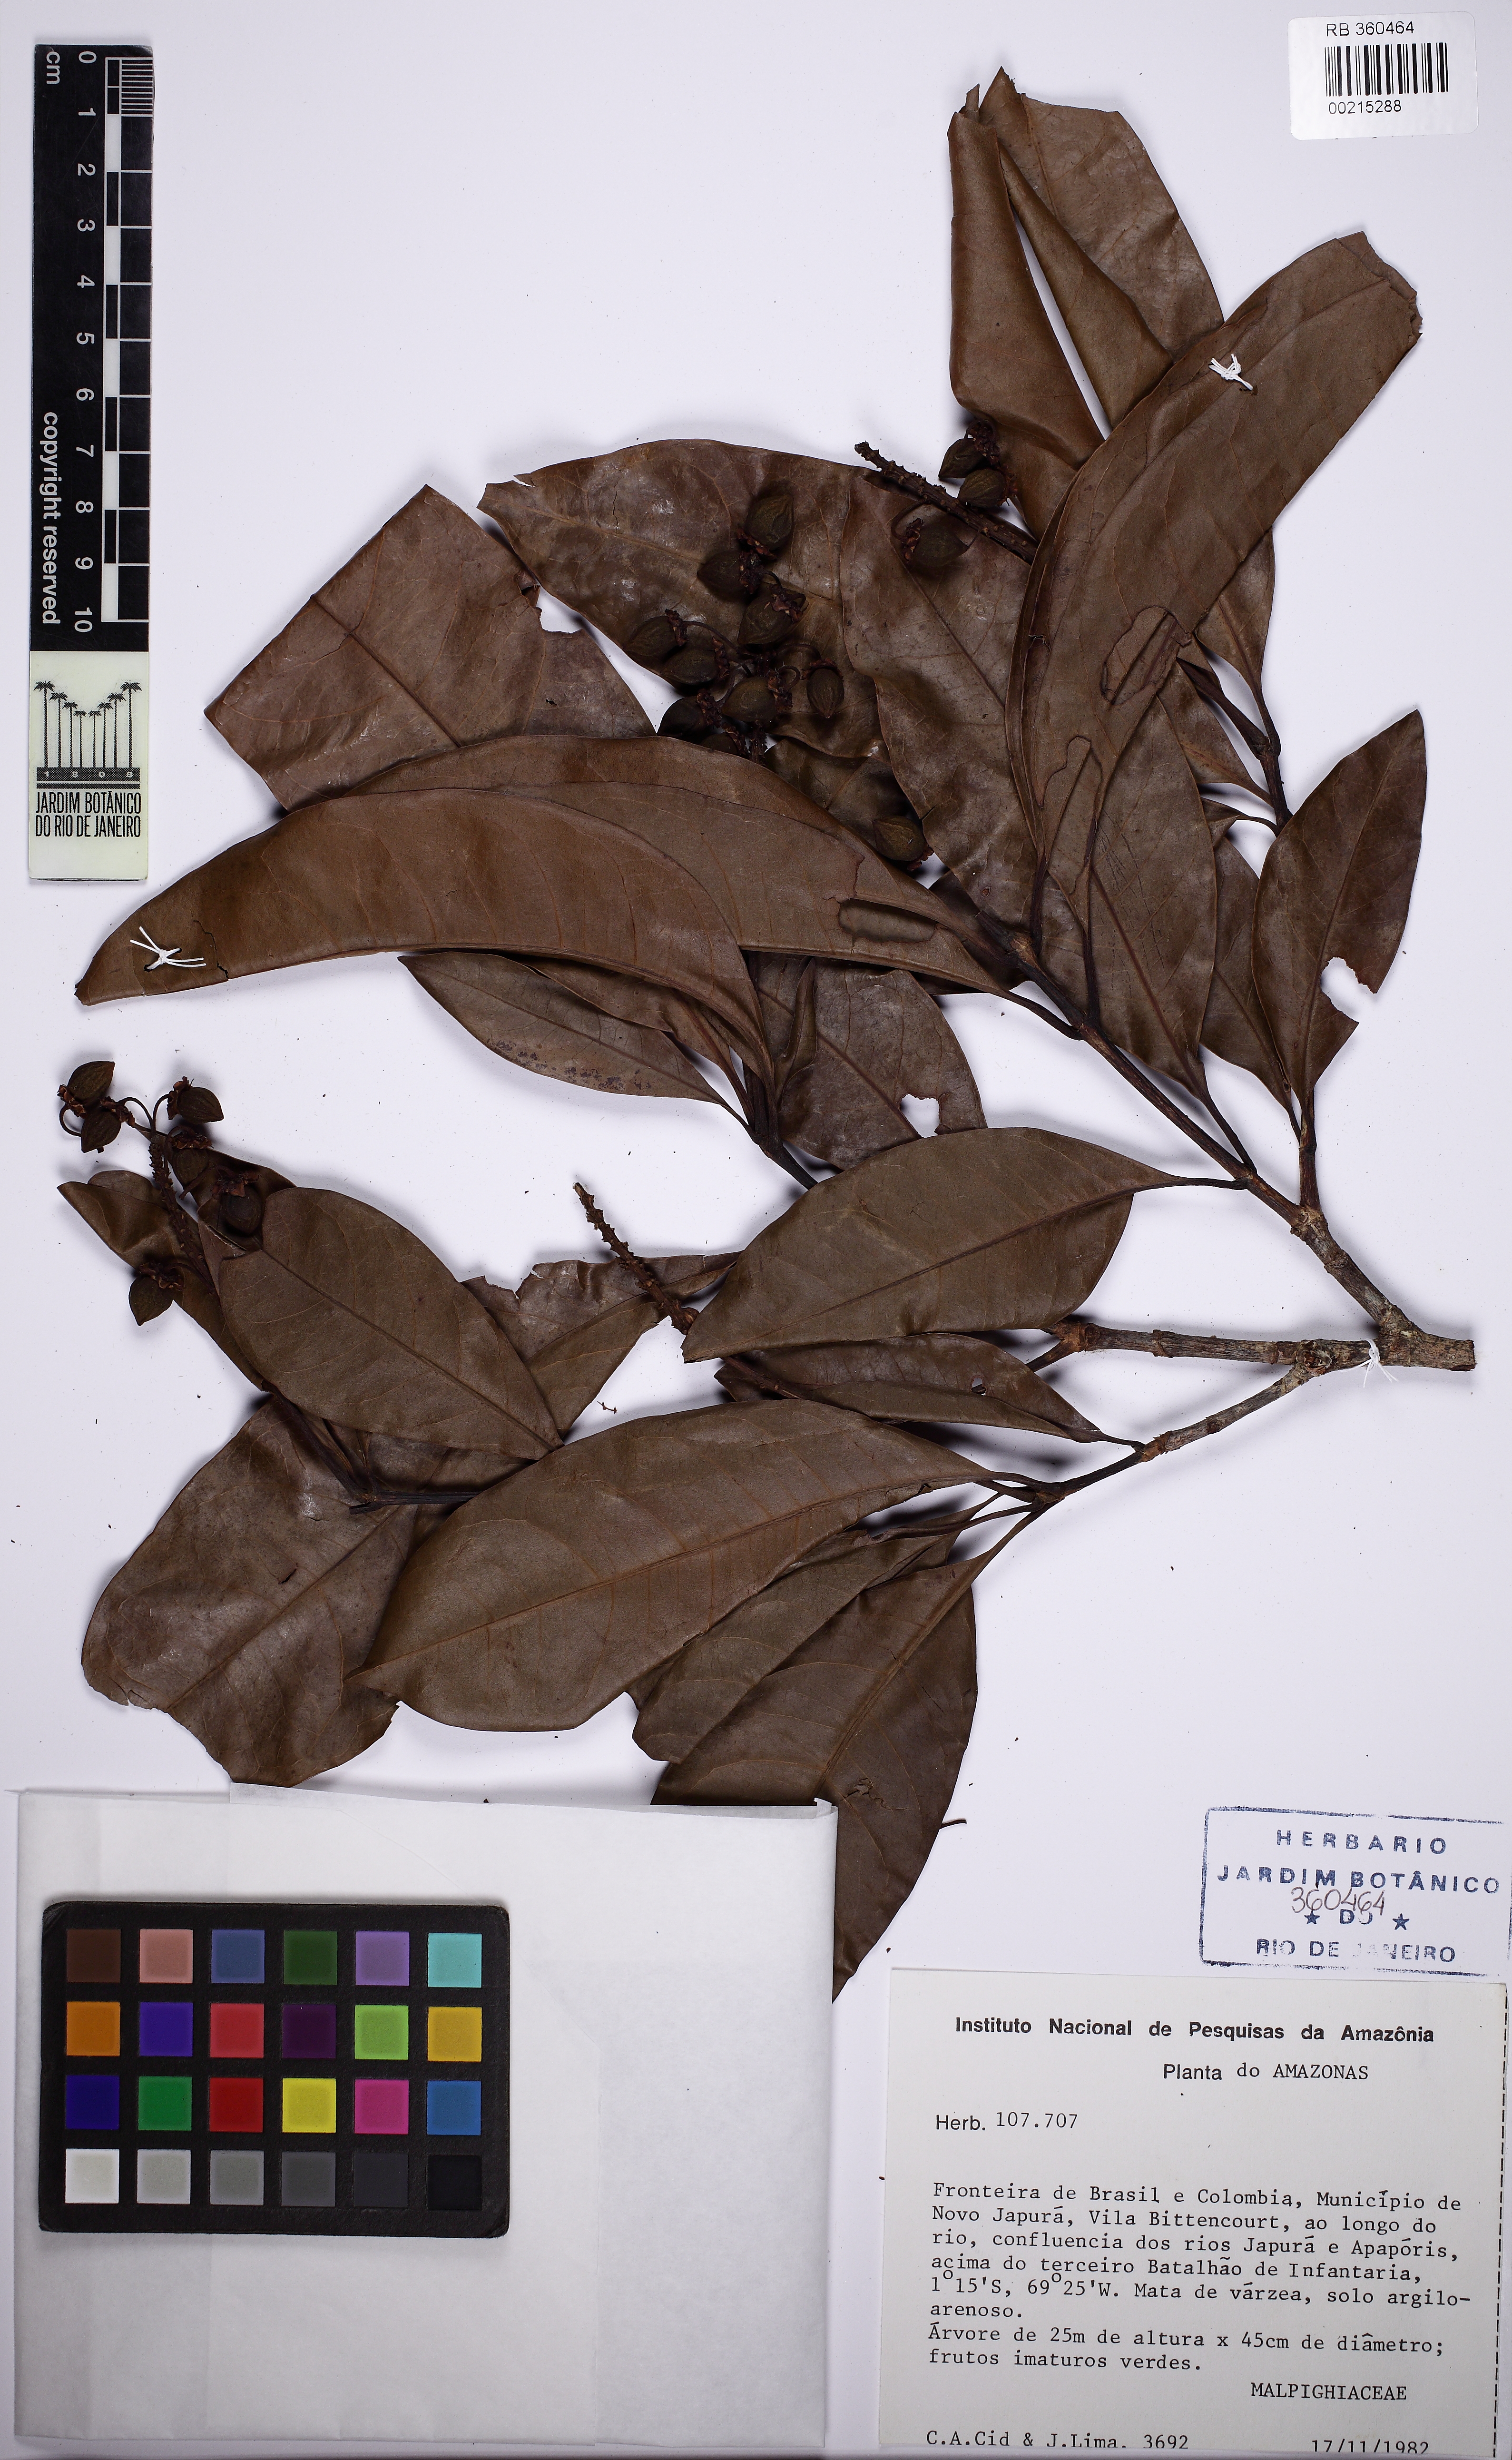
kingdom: Plantae
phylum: Tracheophyta
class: Magnoliopsida
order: Malpighiales
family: Malpighiaceae
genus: Byrsonima
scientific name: Byrsonima
